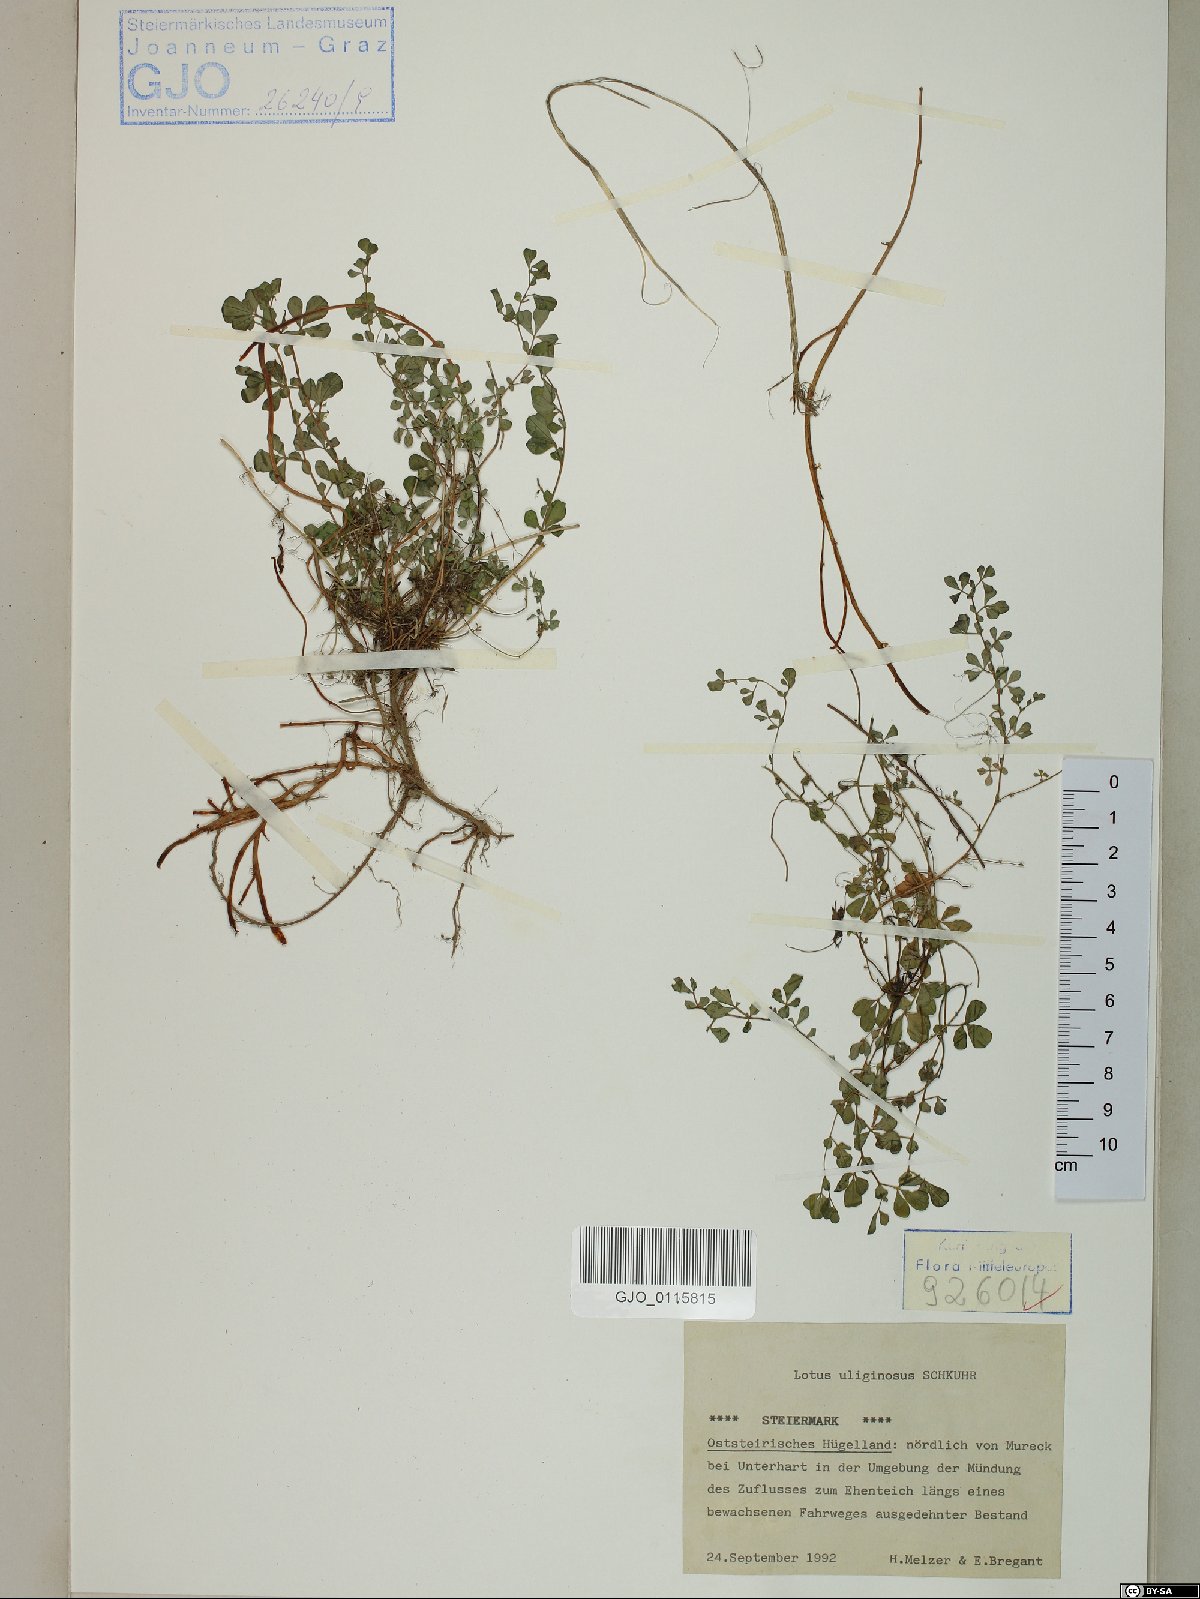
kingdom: Plantae
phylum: Tracheophyta
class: Magnoliopsida
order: Fabales
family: Fabaceae
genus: Lotus
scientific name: Lotus pedunculatus
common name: Greater birdsfoot-trefoil
